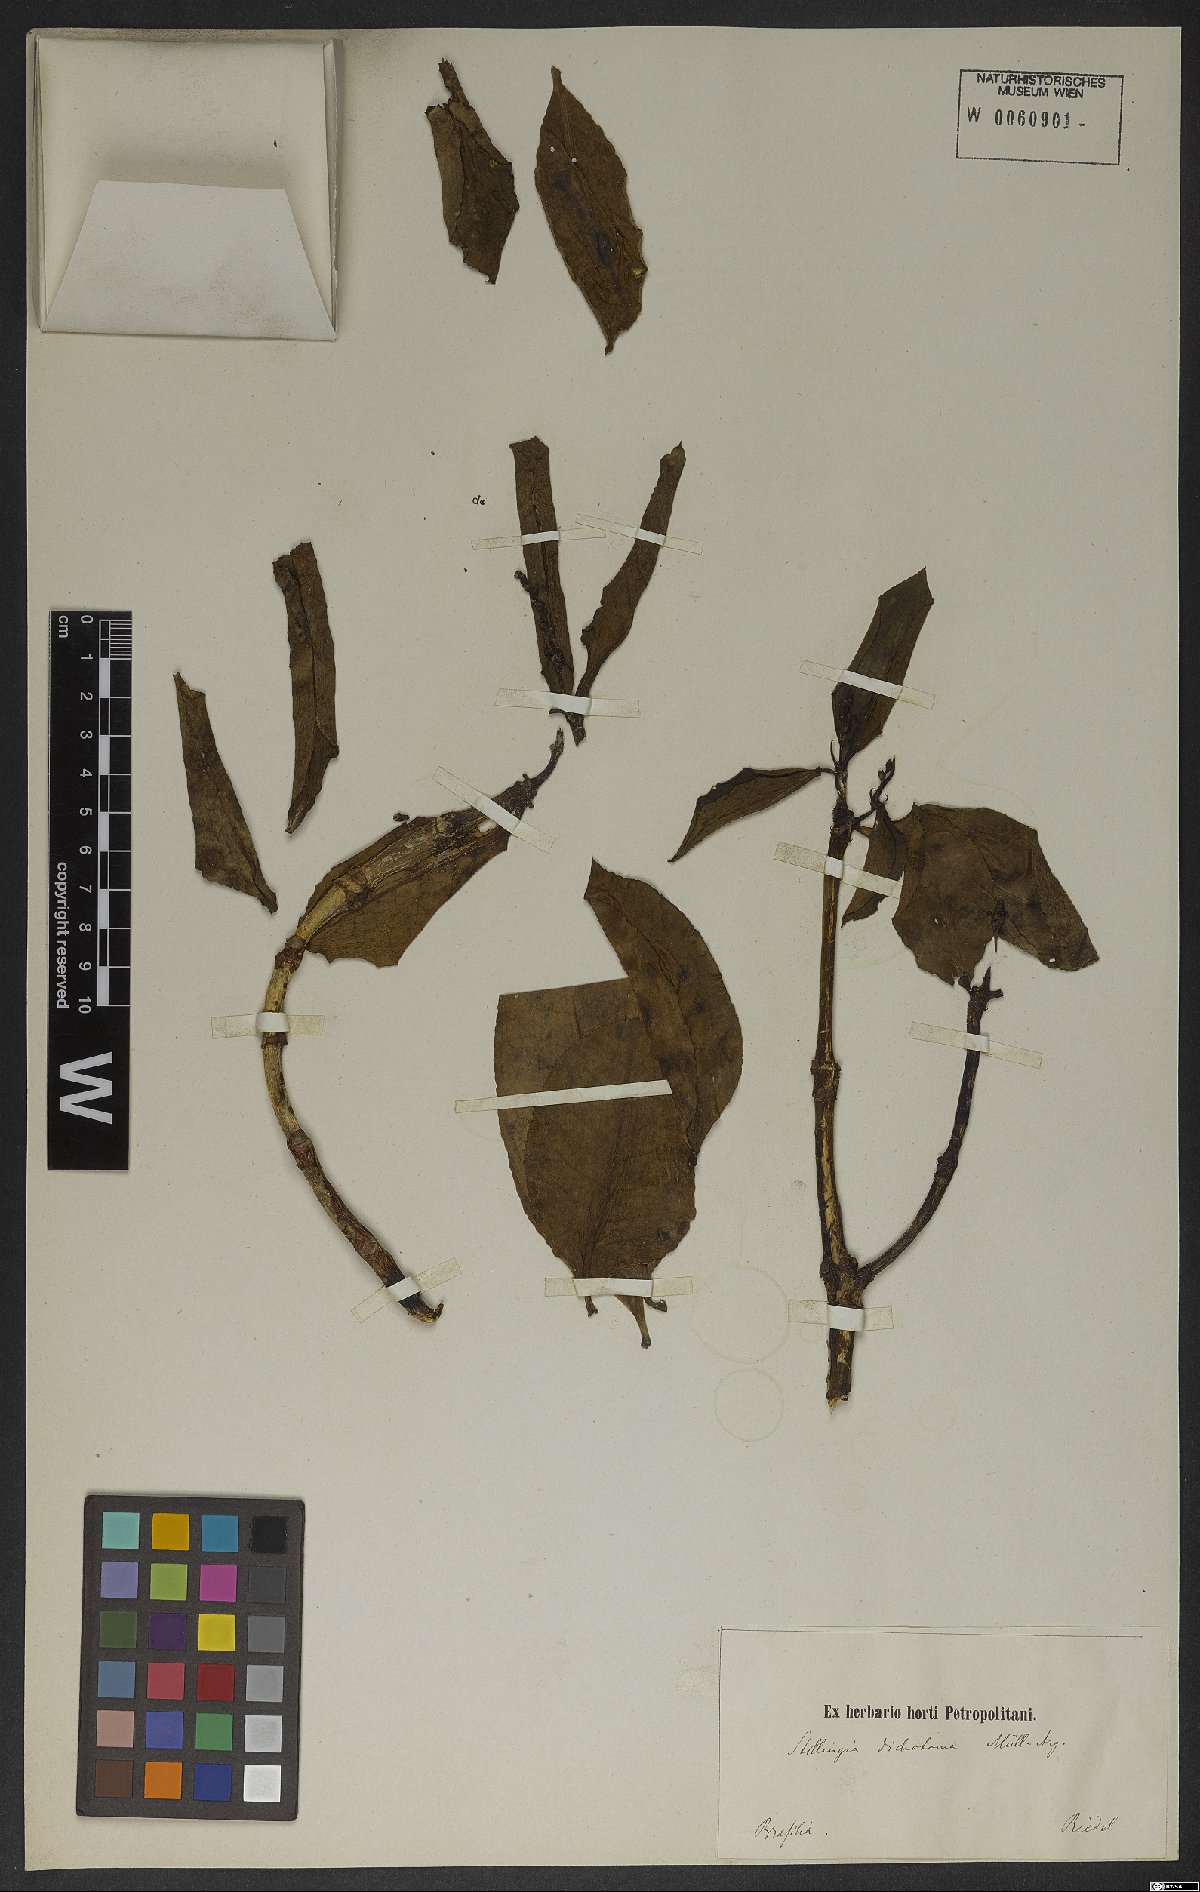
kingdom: Plantae
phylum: Tracheophyta
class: Magnoliopsida
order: Malpighiales
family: Euphorbiaceae
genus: Stillingia
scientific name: Stillingia dichotoma
